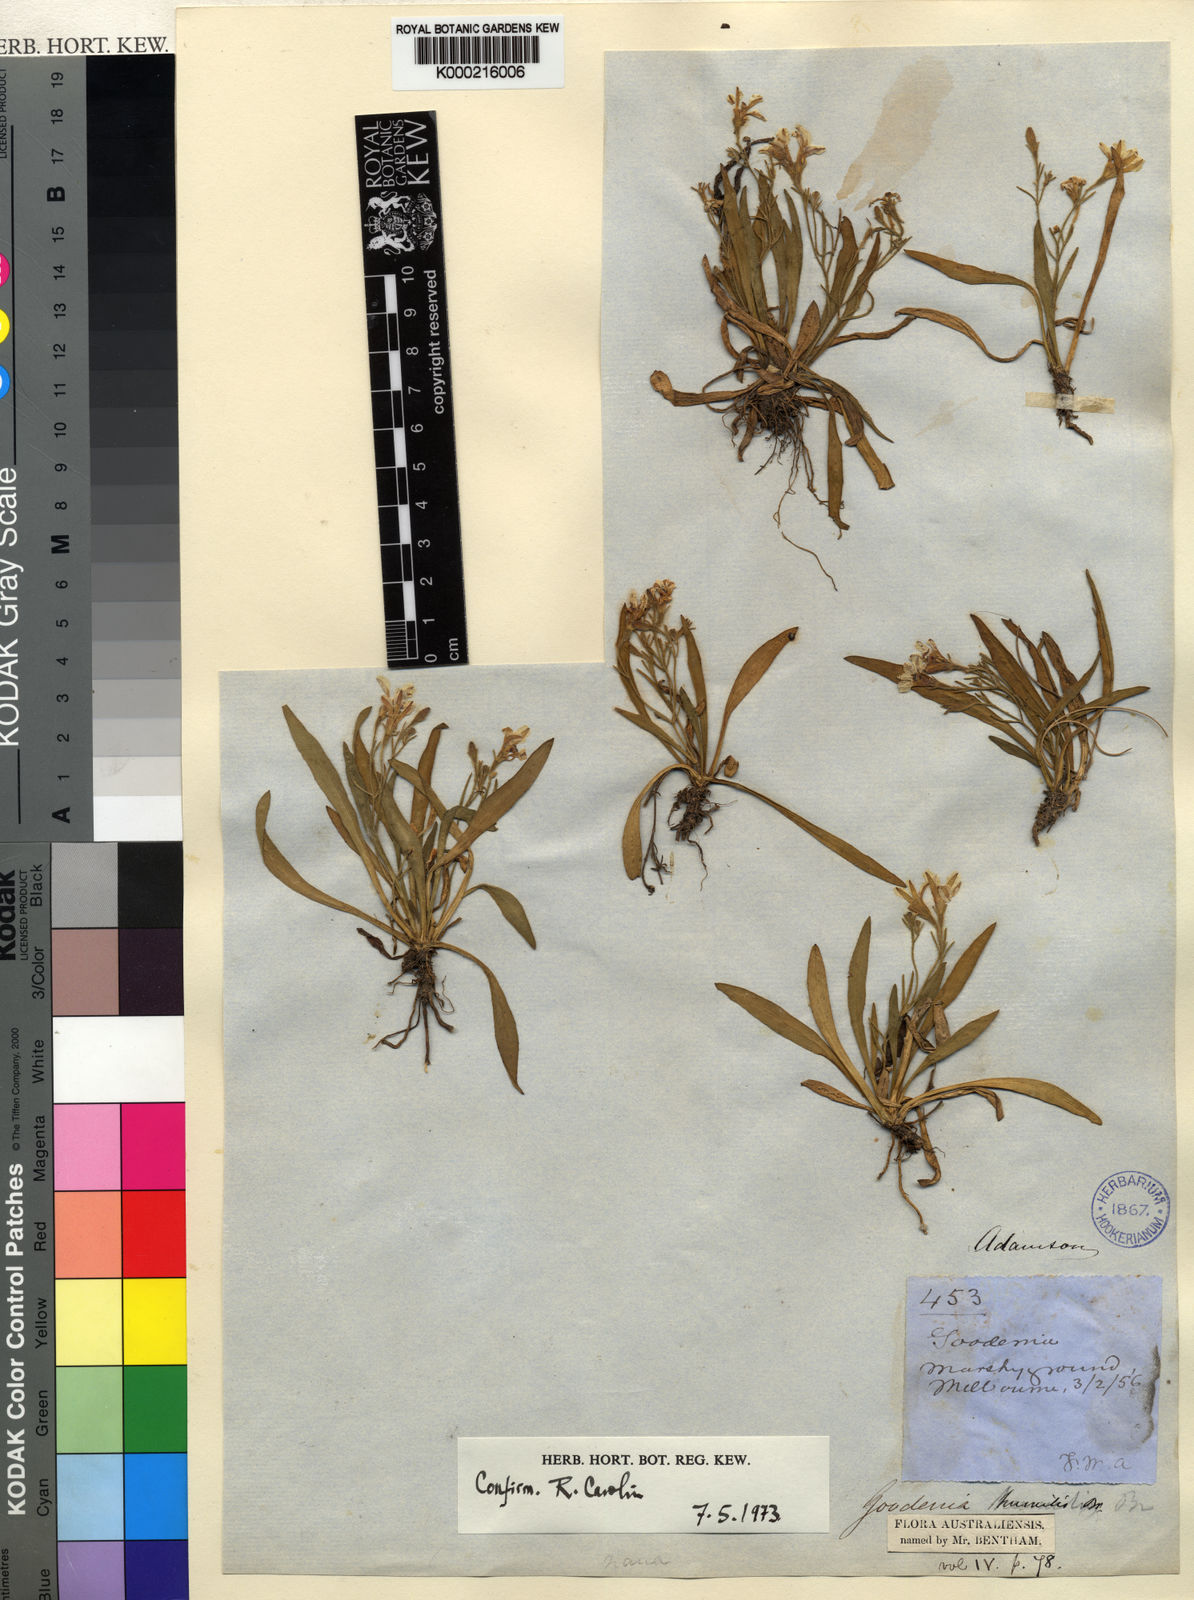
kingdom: Plantae
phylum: Tracheophyta
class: Magnoliopsida
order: Asterales
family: Goodeniaceae
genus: Goodenia
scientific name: Goodenia humilis
